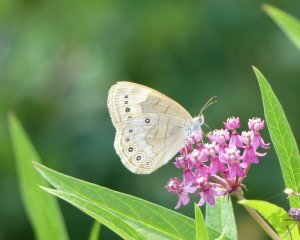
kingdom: Animalia
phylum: Arthropoda
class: Insecta
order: Lepidoptera
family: Nymphalidae
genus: Lethe
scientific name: Lethe eurydice
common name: Appalachian Eyed Brown
